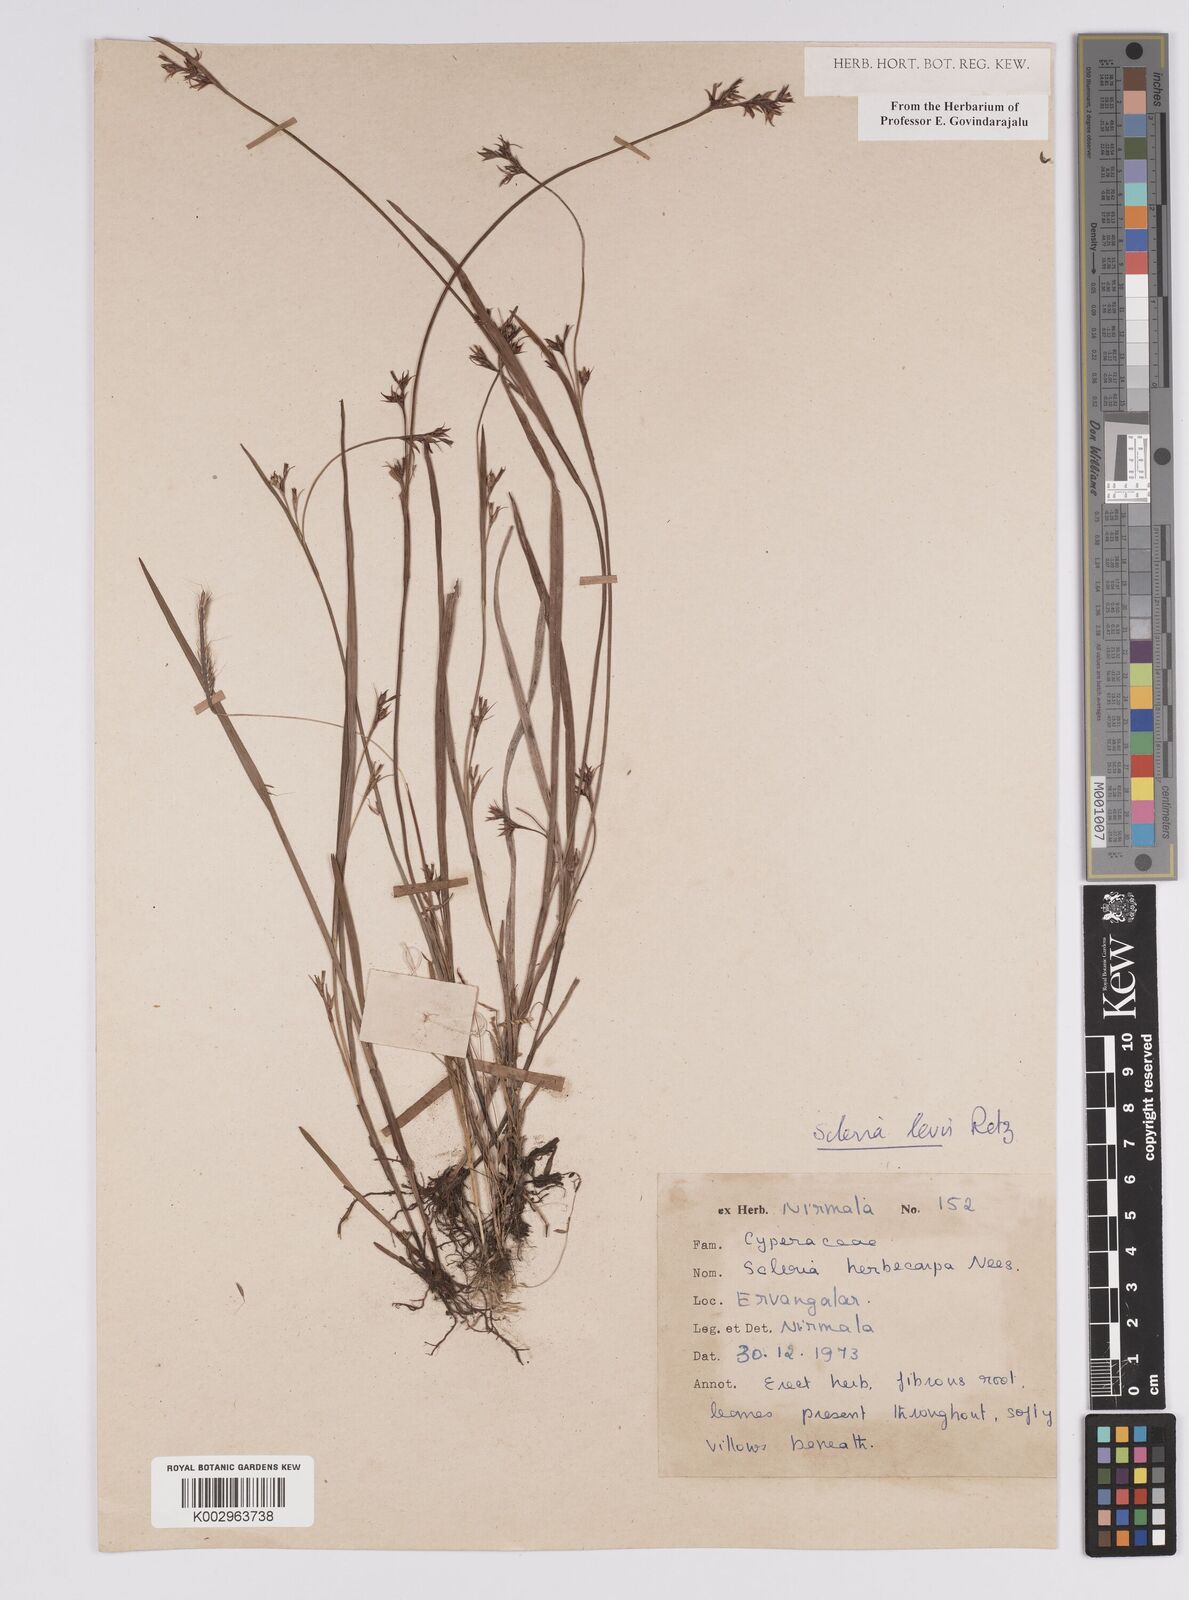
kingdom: Plantae
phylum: Tracheophyta
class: Liliopsida
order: Poales
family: Cyperaceae
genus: Scleria
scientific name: Scleria levis
